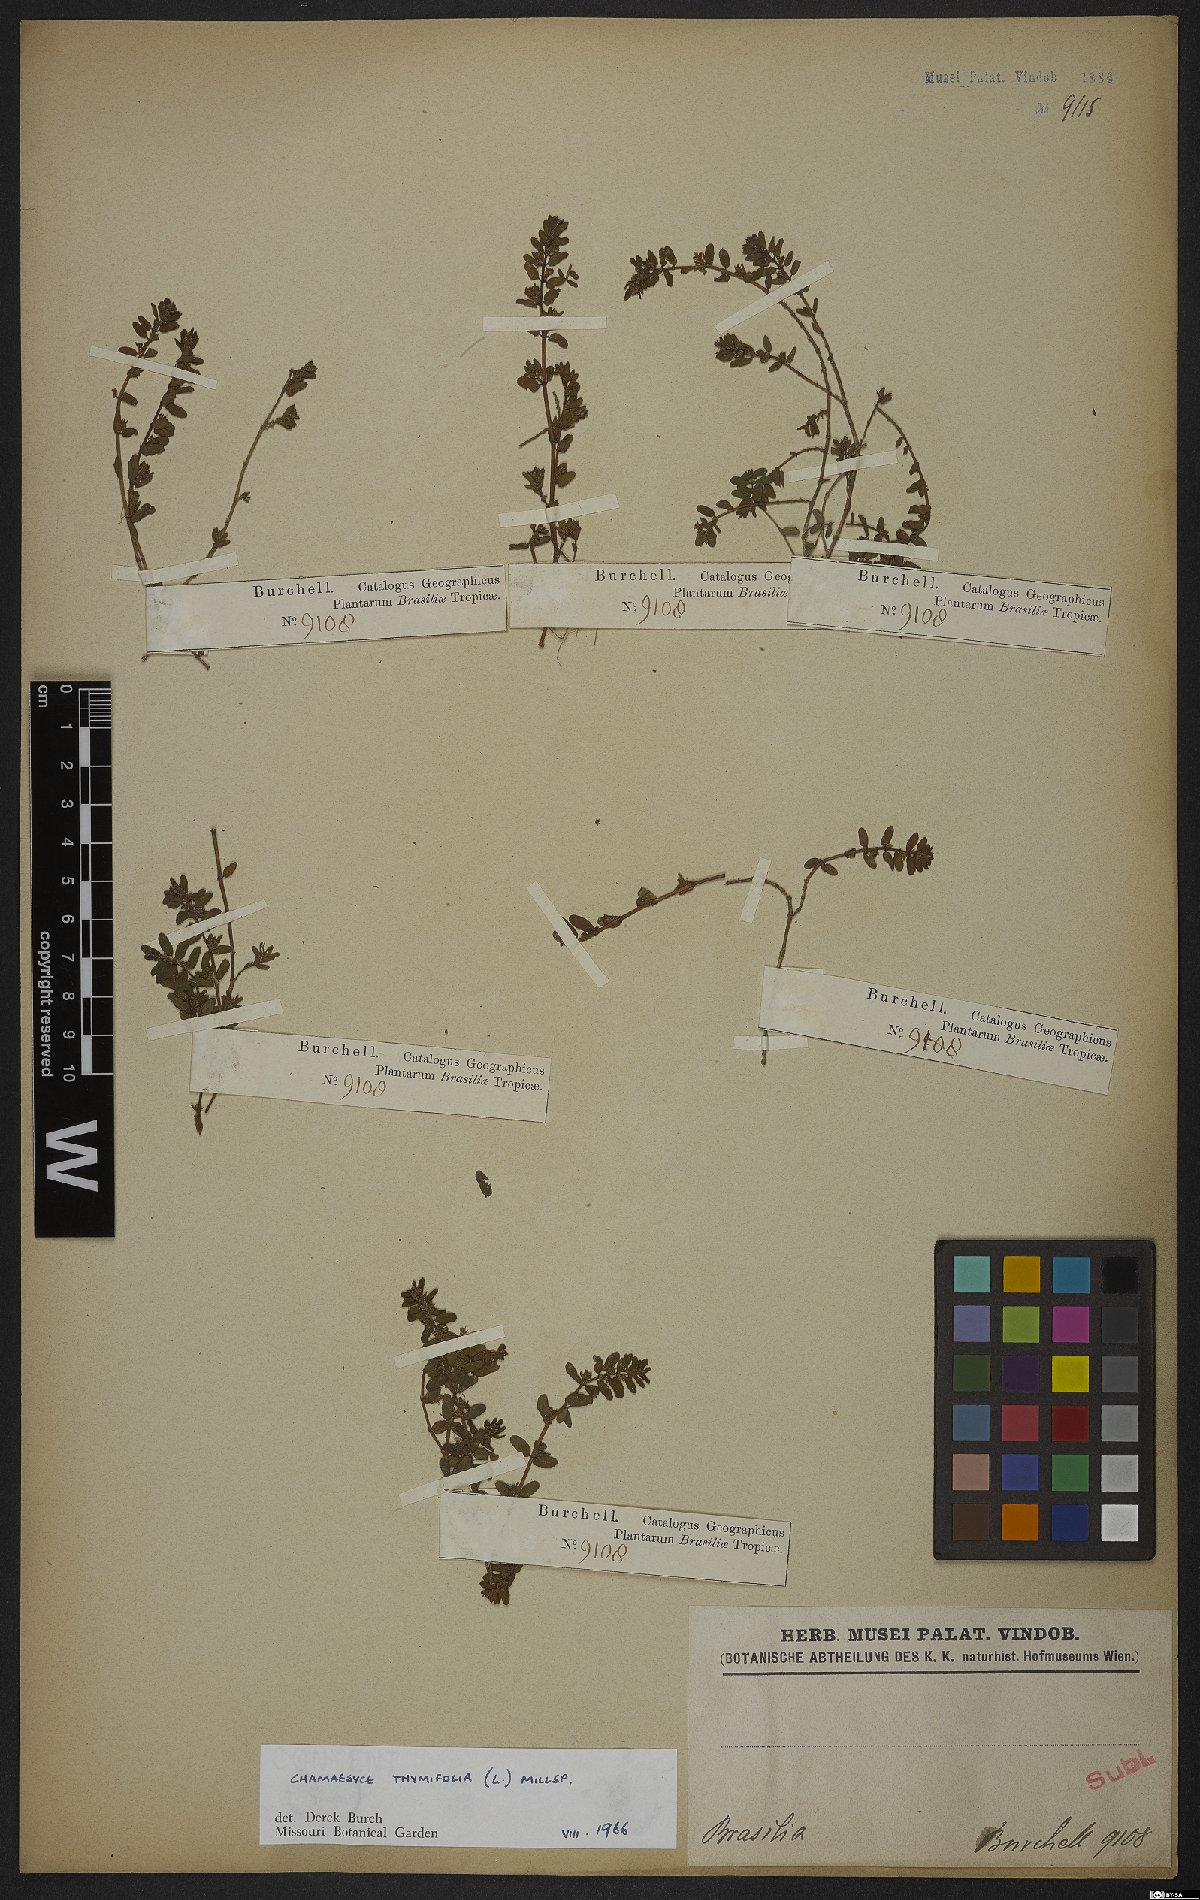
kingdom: Plantae
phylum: Tracheophyta
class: Magnoliopsida
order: Malpighiales
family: Euphorbiaceae
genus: Euphorbia
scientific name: Euphorbia scordiifolia
